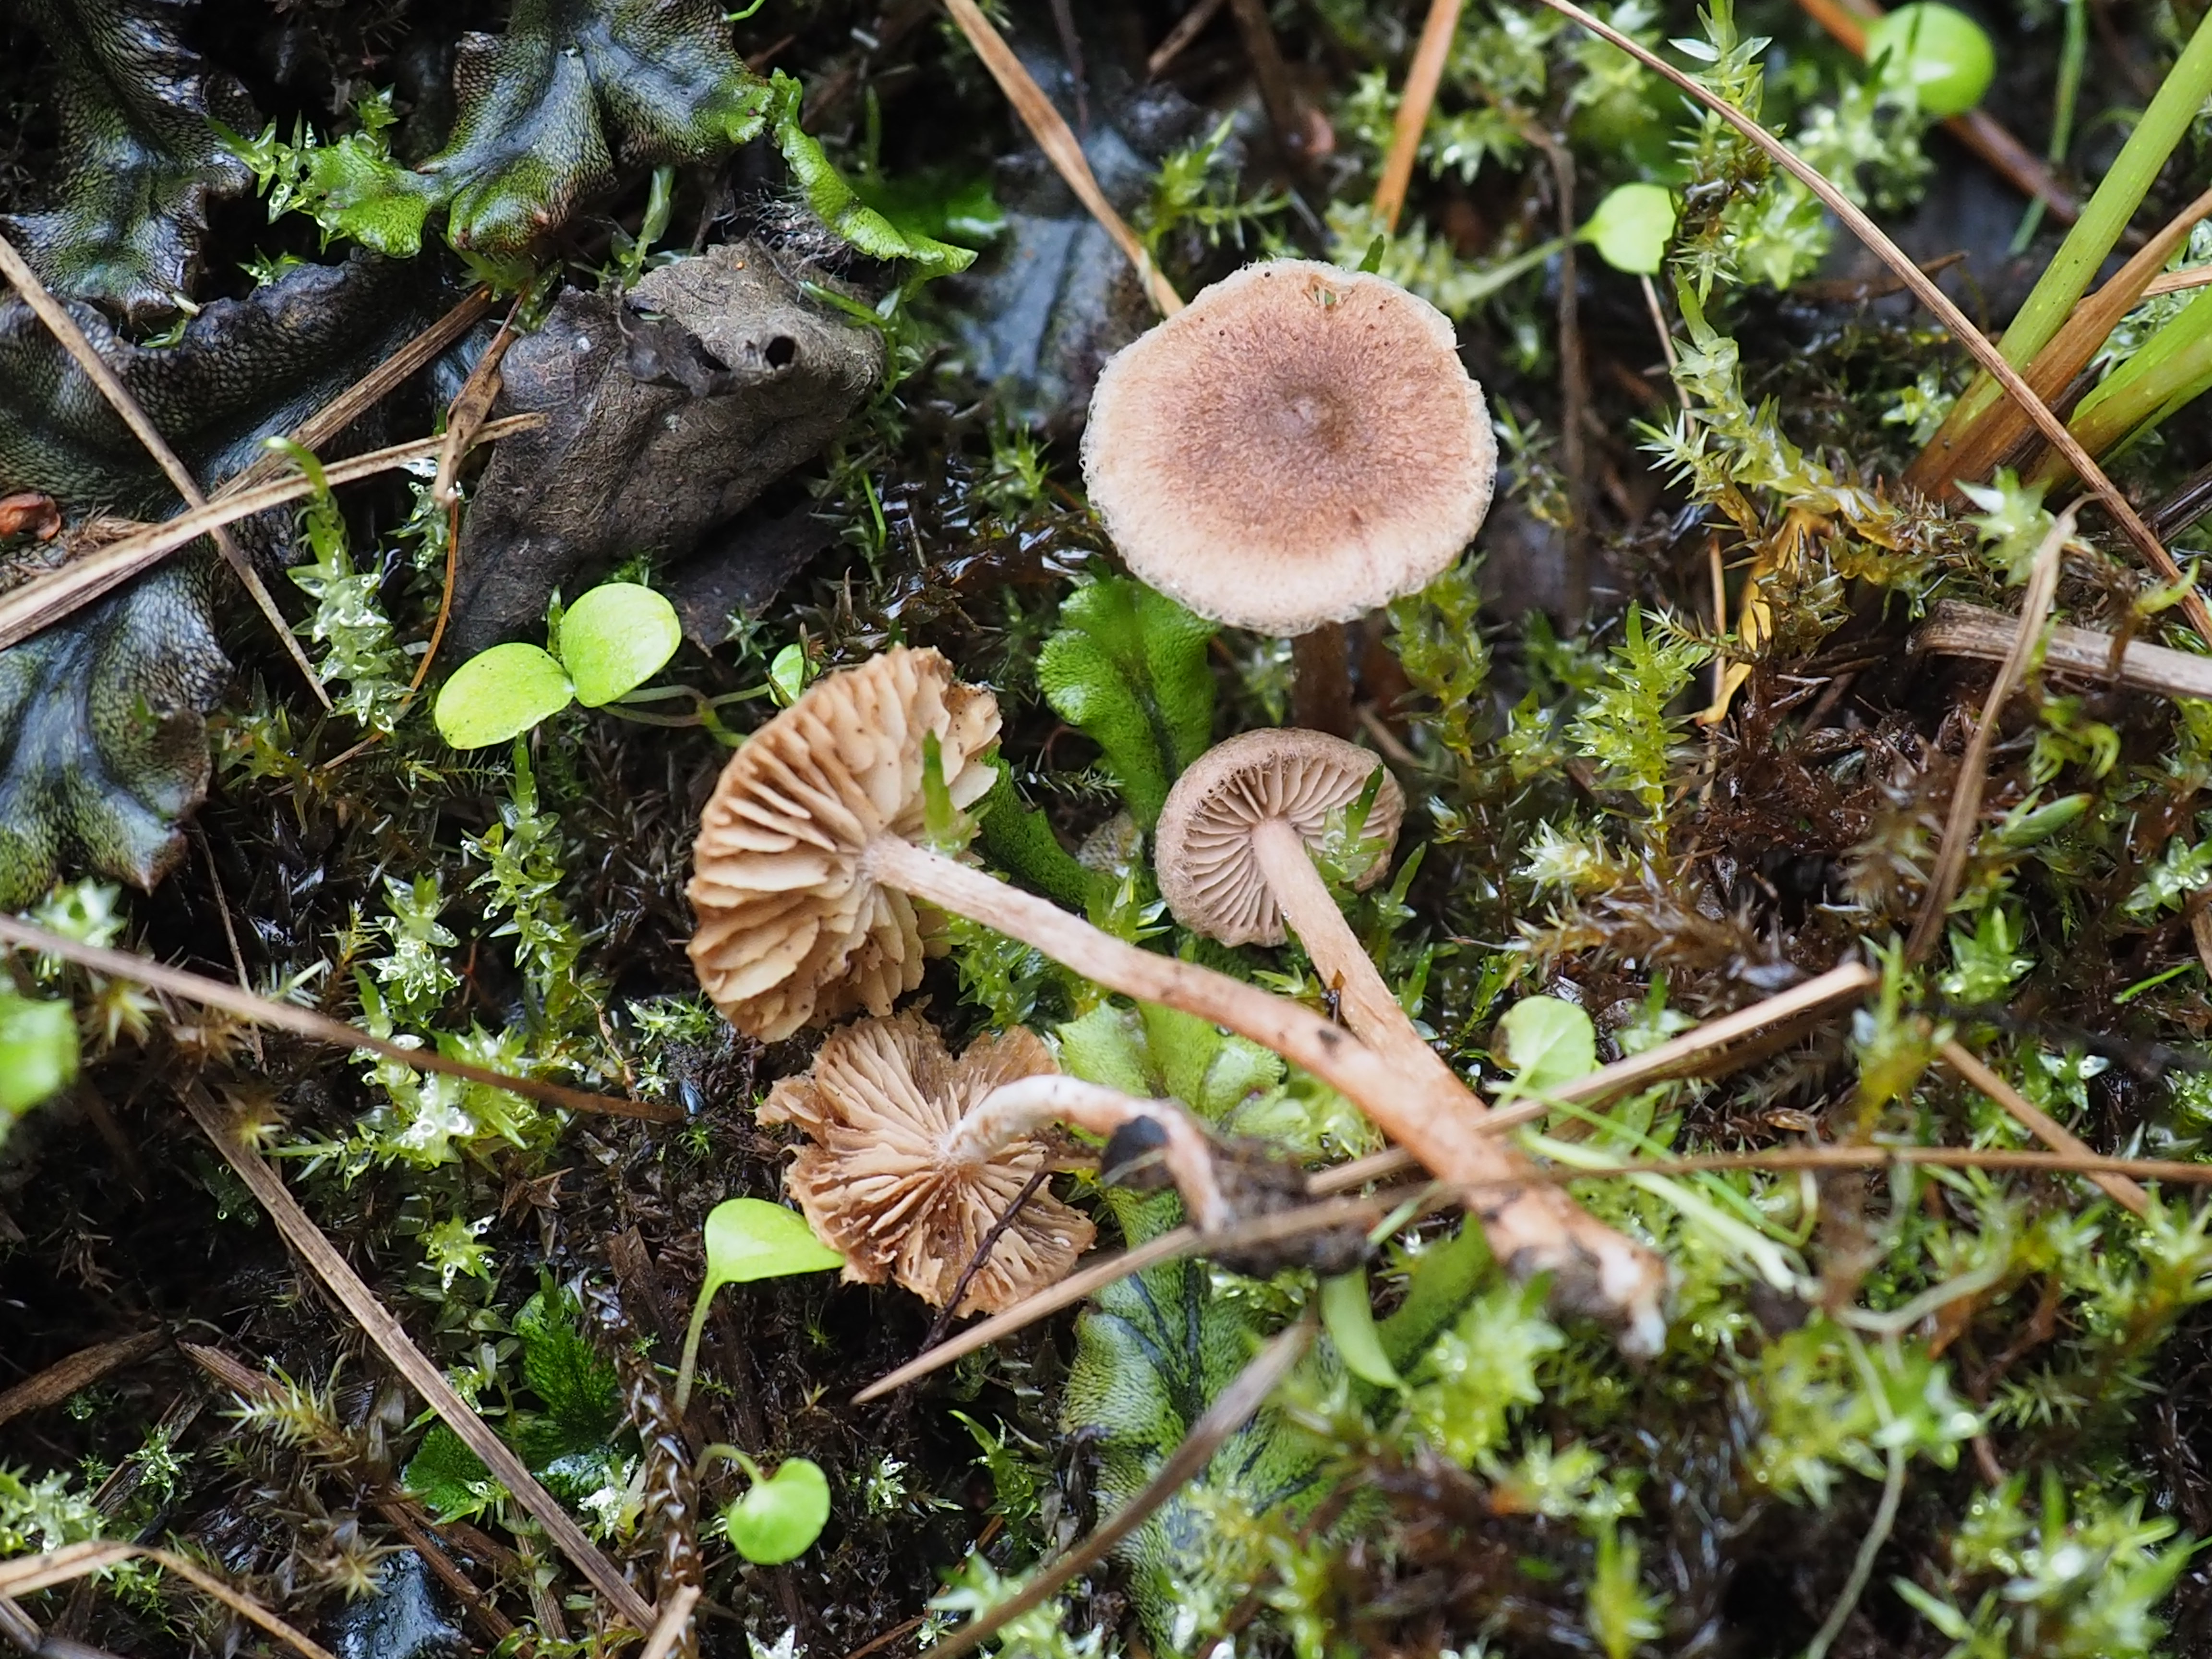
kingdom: Fungi
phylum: Basidiomycota
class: Agaricomycetes
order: Agaricales
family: Inocybaceae
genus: Inocybe
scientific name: Inocybe helobia
